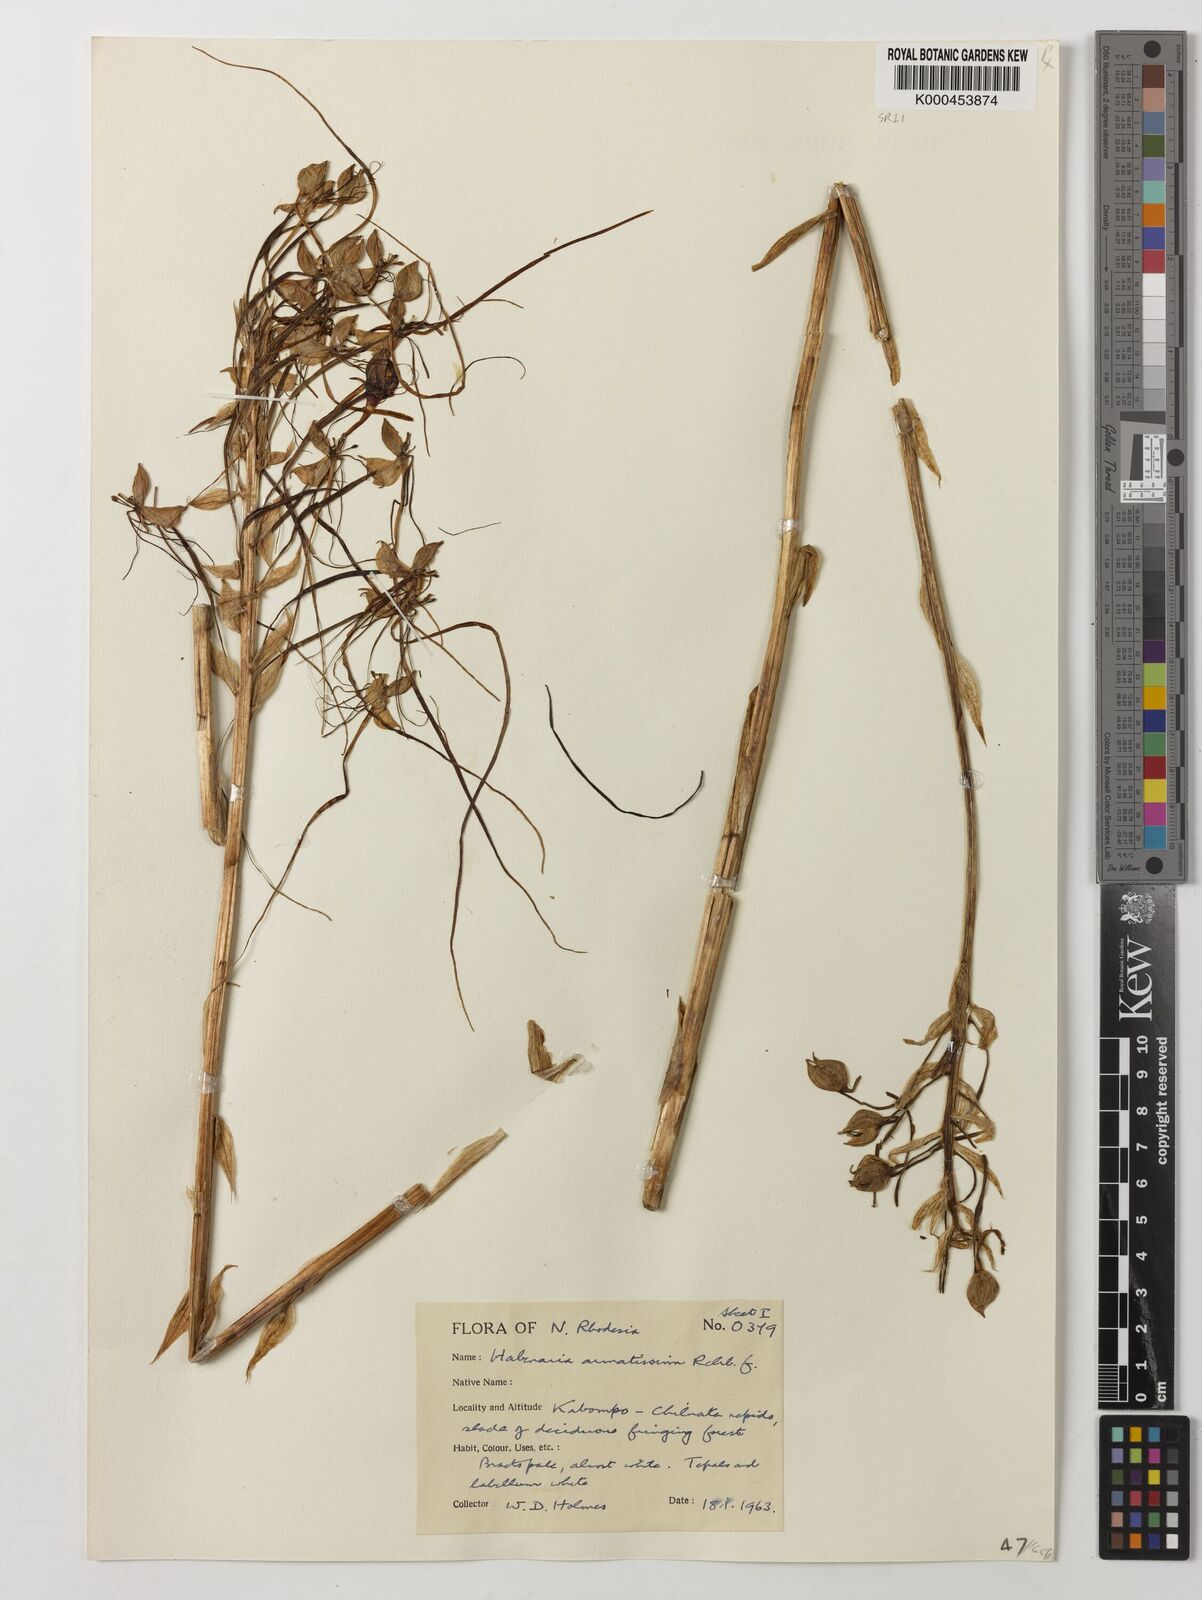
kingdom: Plantae
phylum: Tracheophyta
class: Liliopsida
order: Asparagales
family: Orchidaceae
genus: Habenaria
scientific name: Habenaria armatissima
